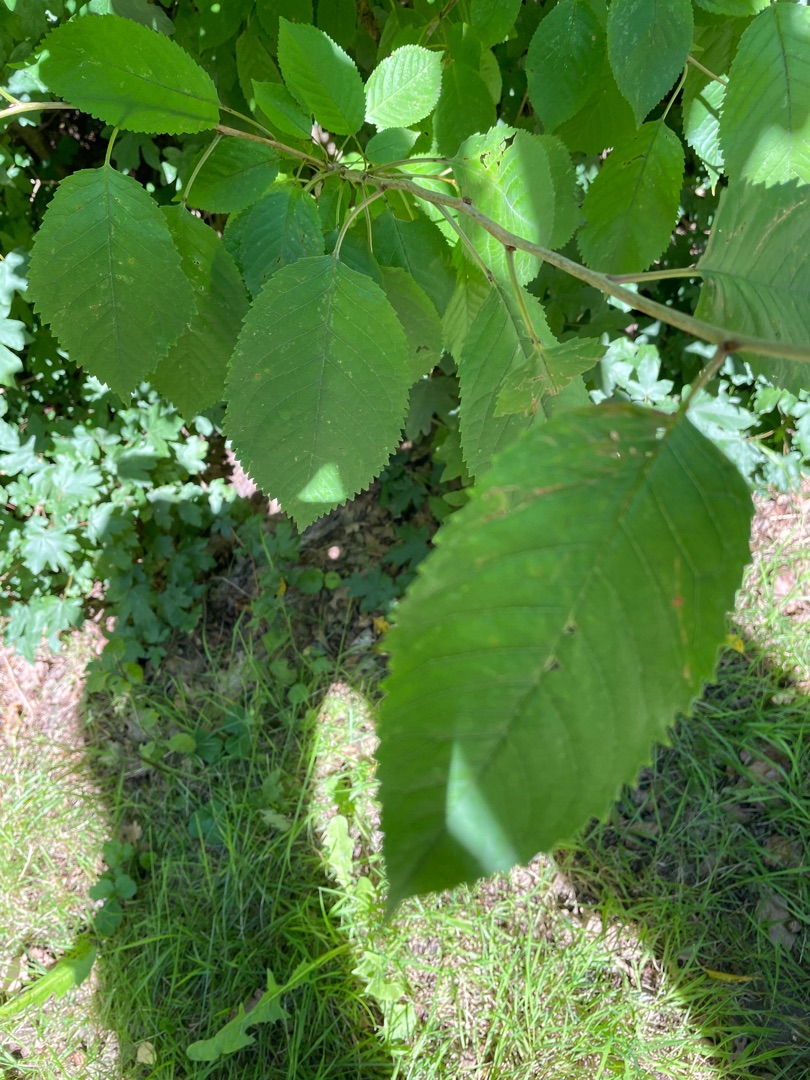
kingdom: Plantae
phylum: Tracheophyta
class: Magnoliopsida
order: Rosales
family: Rosaceae
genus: Prunus
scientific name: Prunus avium
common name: Fugle-kirsebær
